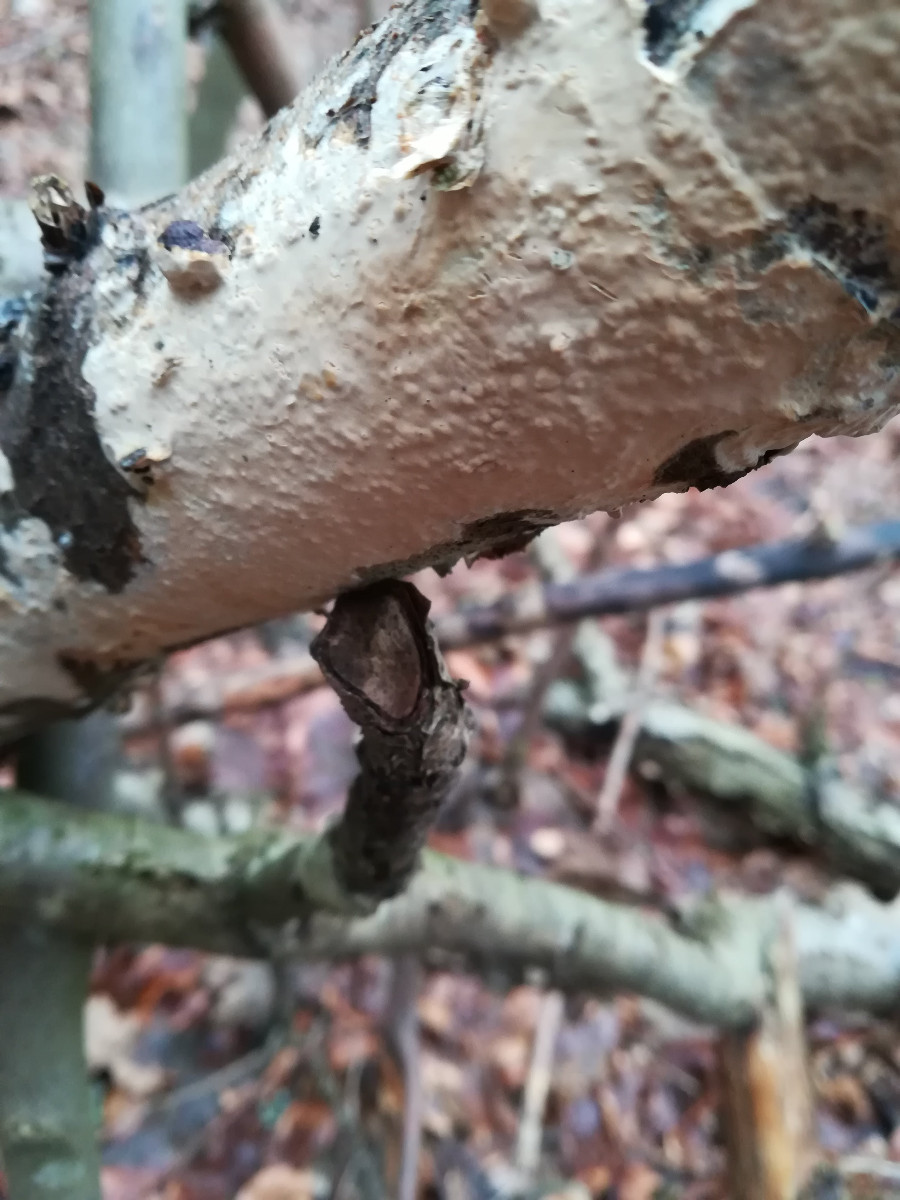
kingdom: Fungi
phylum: Basidiomycota
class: Agaricomycetes
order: Russulales
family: Peniophoraceae
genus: Scytinostroma
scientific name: Scytinostroma hemidichophyticum
